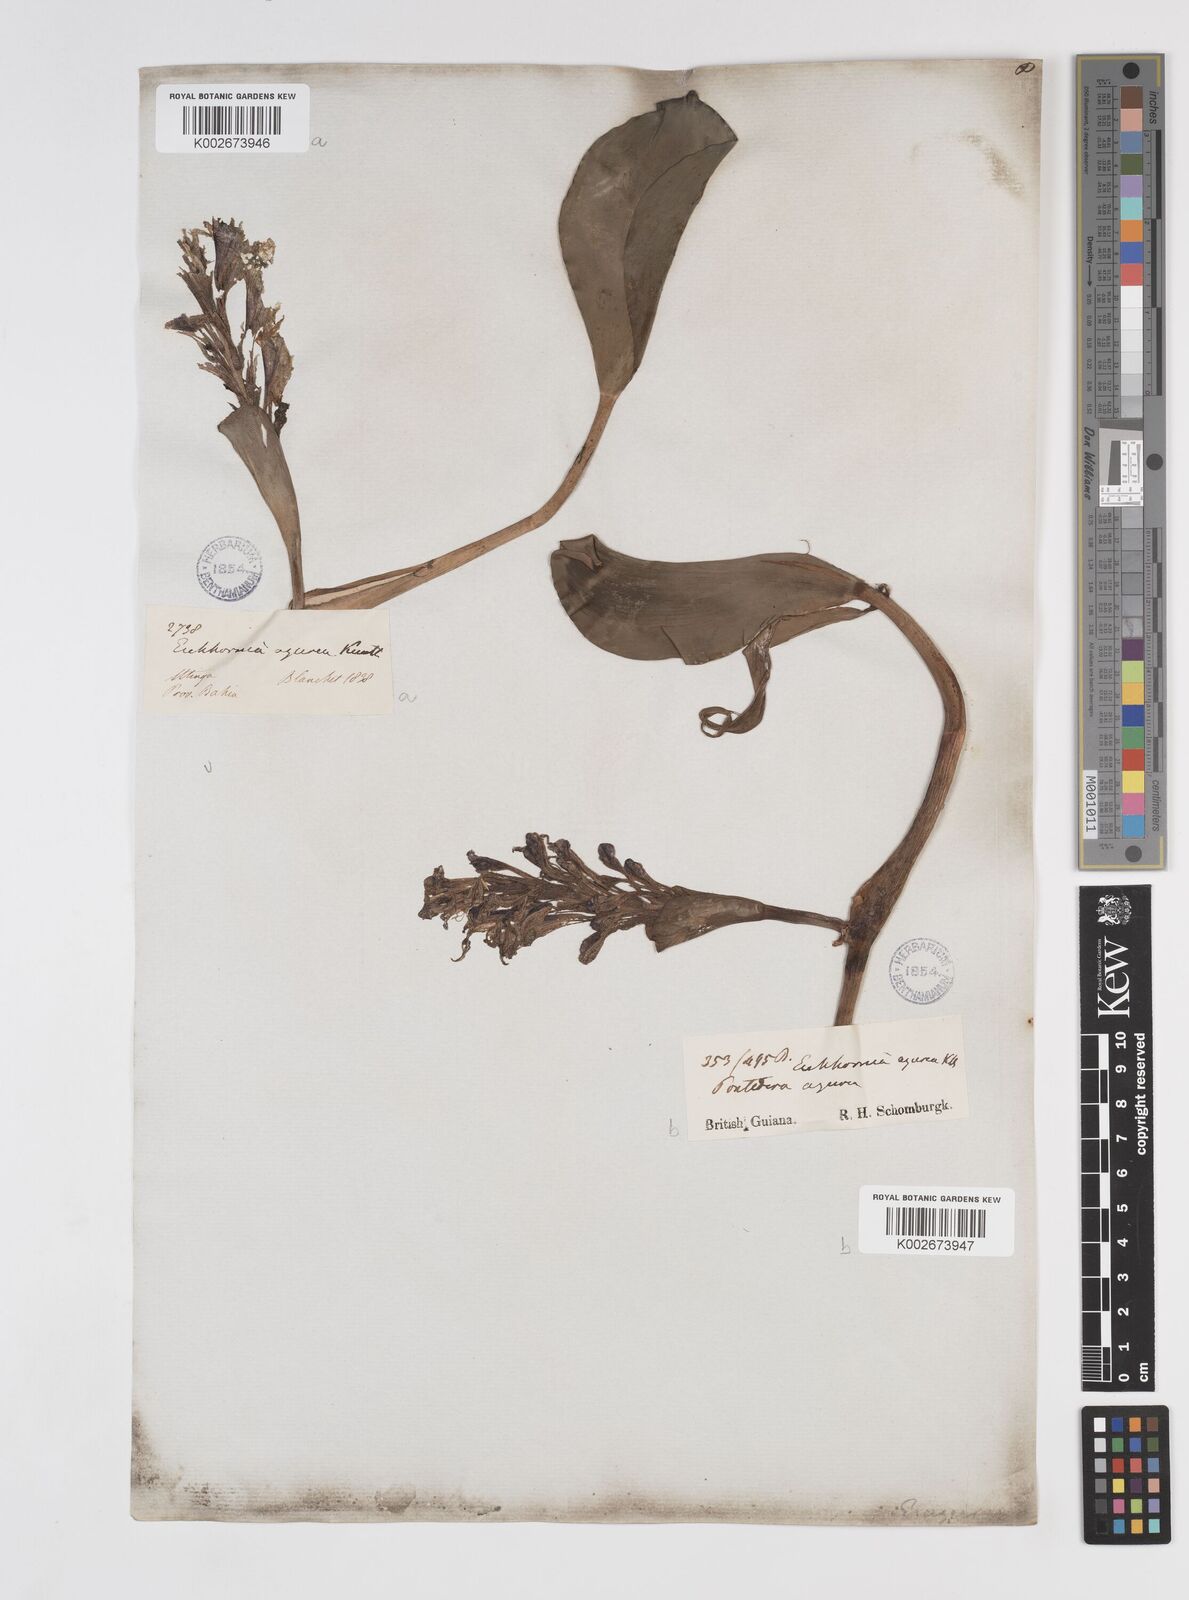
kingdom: Plantae
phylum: Tracheophyta
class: Liliopsida
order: Commelinales
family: Pontederiaceae
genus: Pontederia
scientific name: Pontederia azurea
